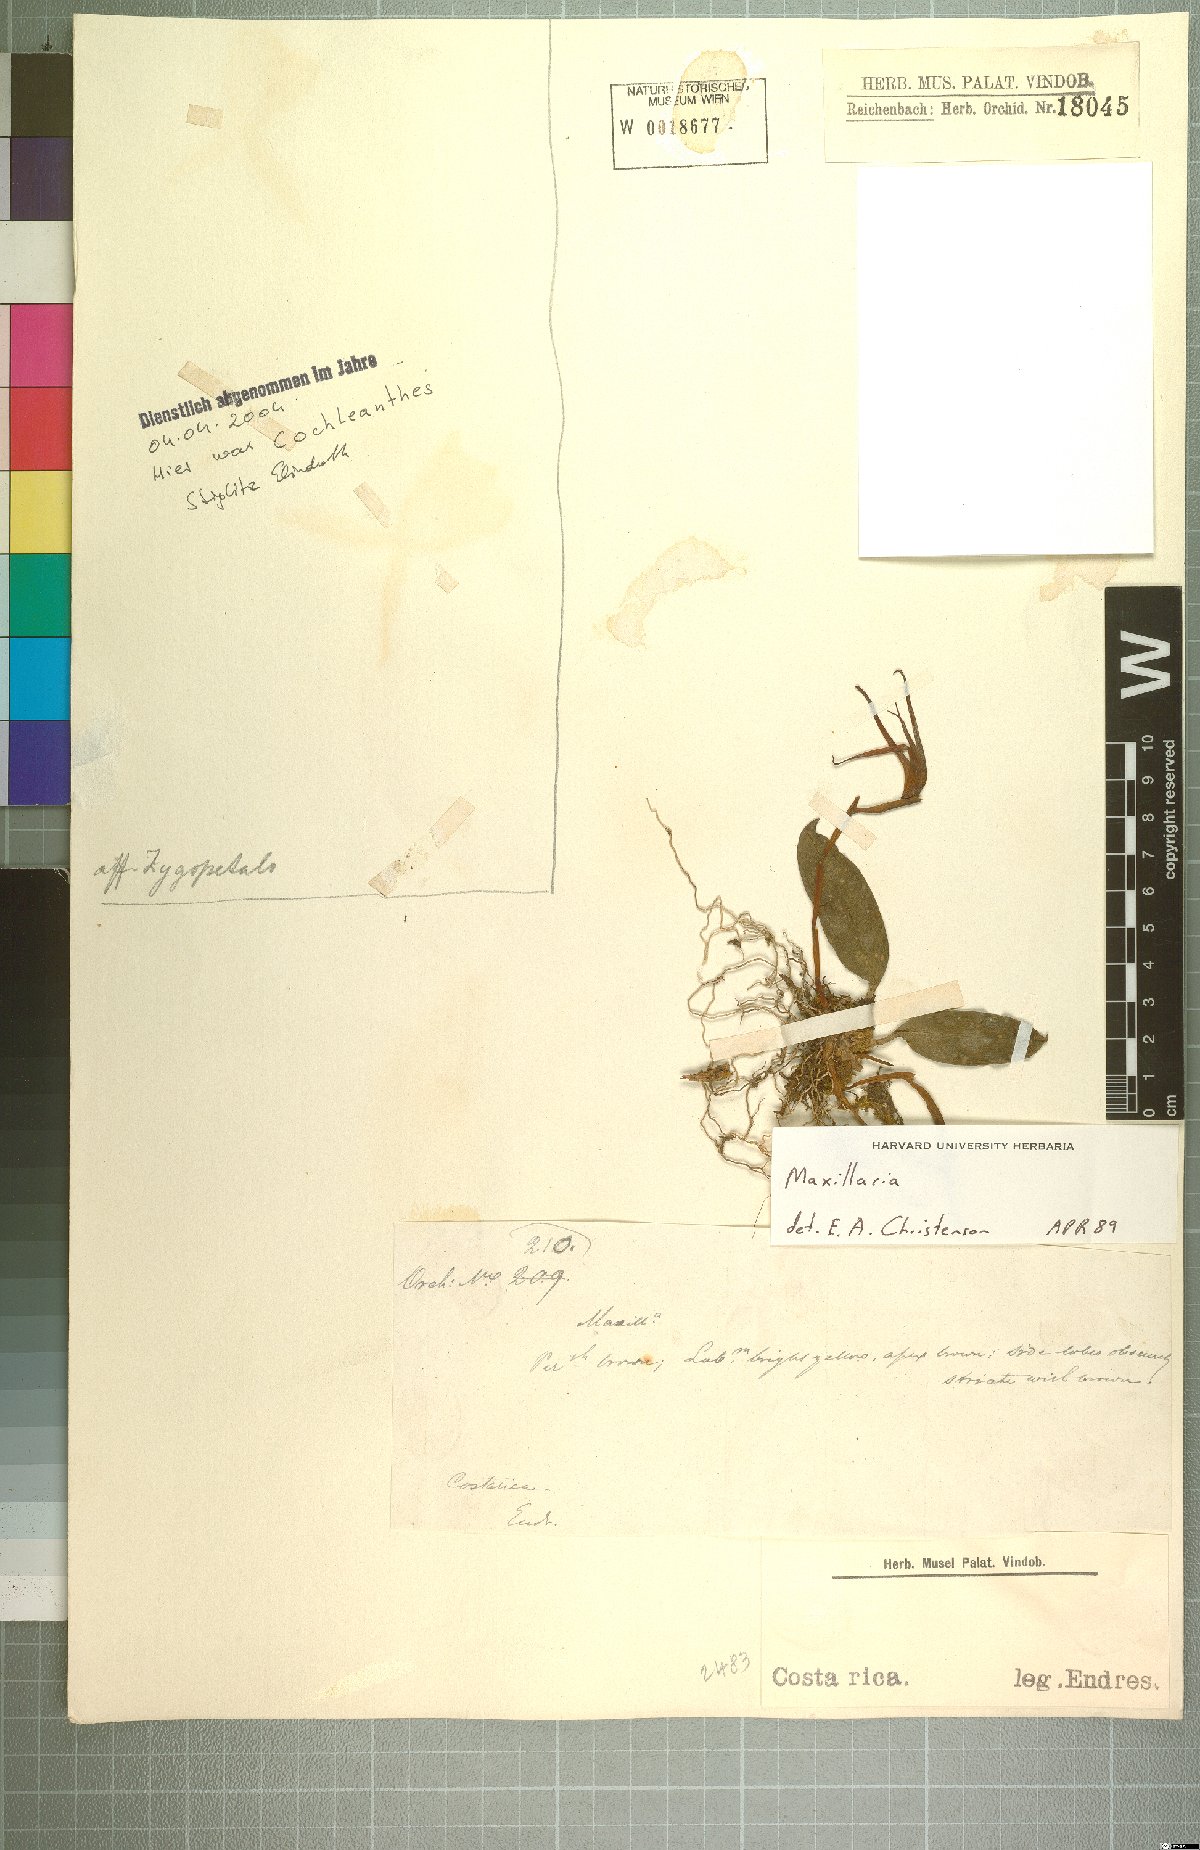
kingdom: Plantae
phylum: Tracheophyta
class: Liliopsida
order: Asparagales
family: Orchidaceae
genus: Maxillaria
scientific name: Maxillaria
